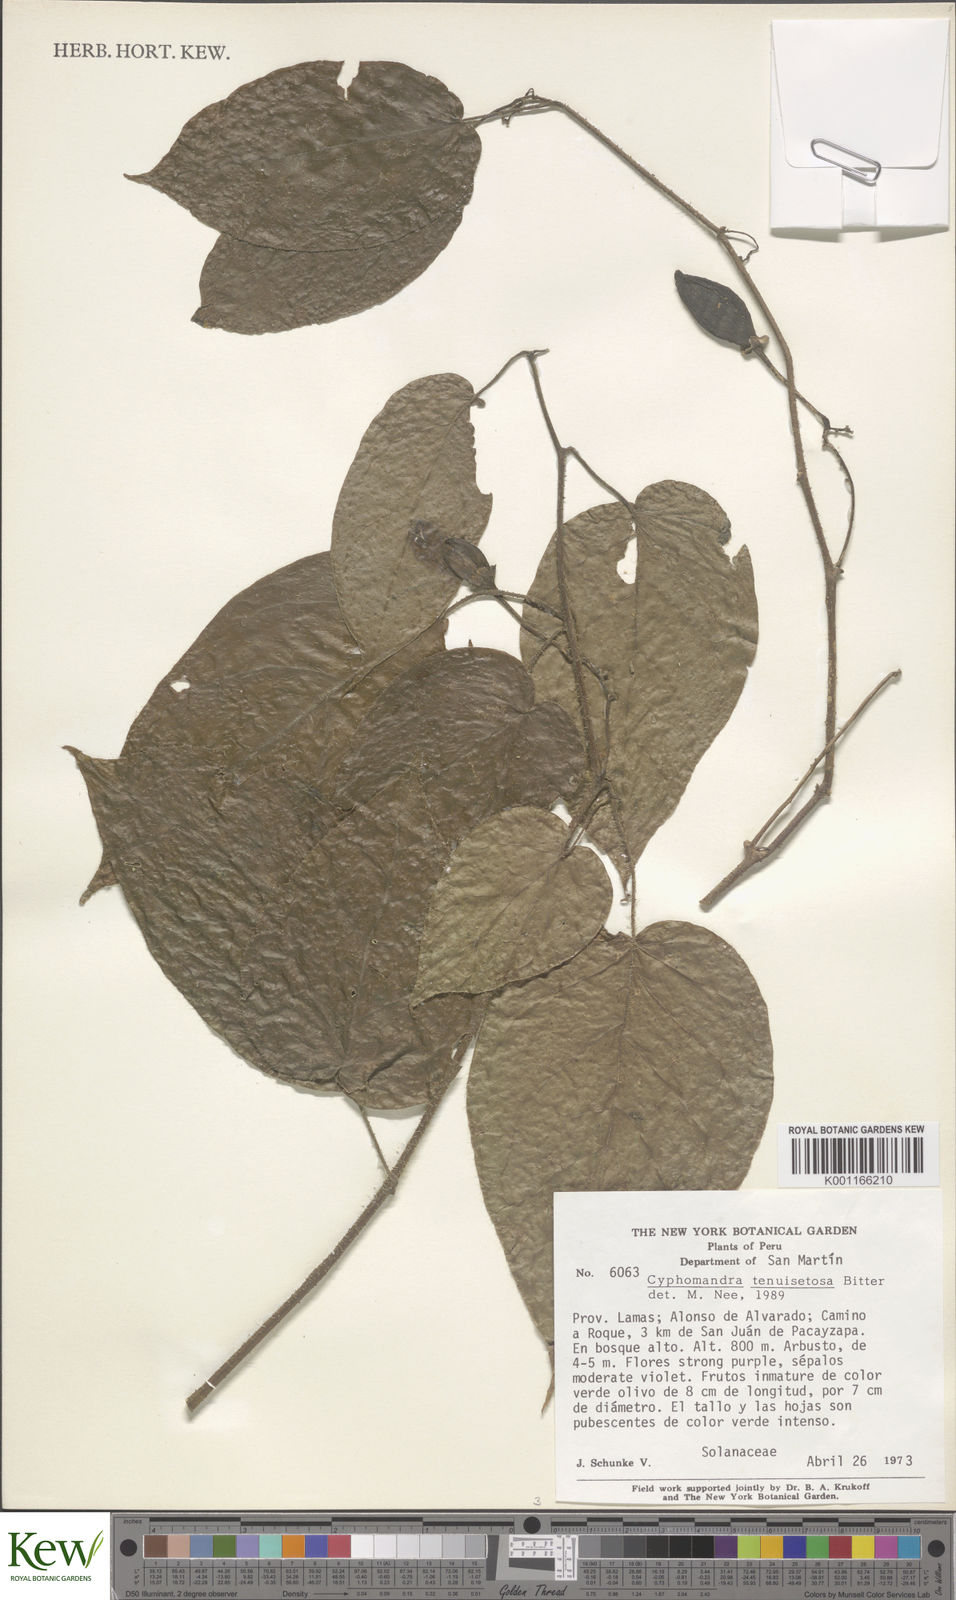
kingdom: Plantae
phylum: Tracheophyta
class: Magnoliopsida
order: Solanales
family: Solanaceae
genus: Solanum
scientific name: Solanum tenuisetosum
